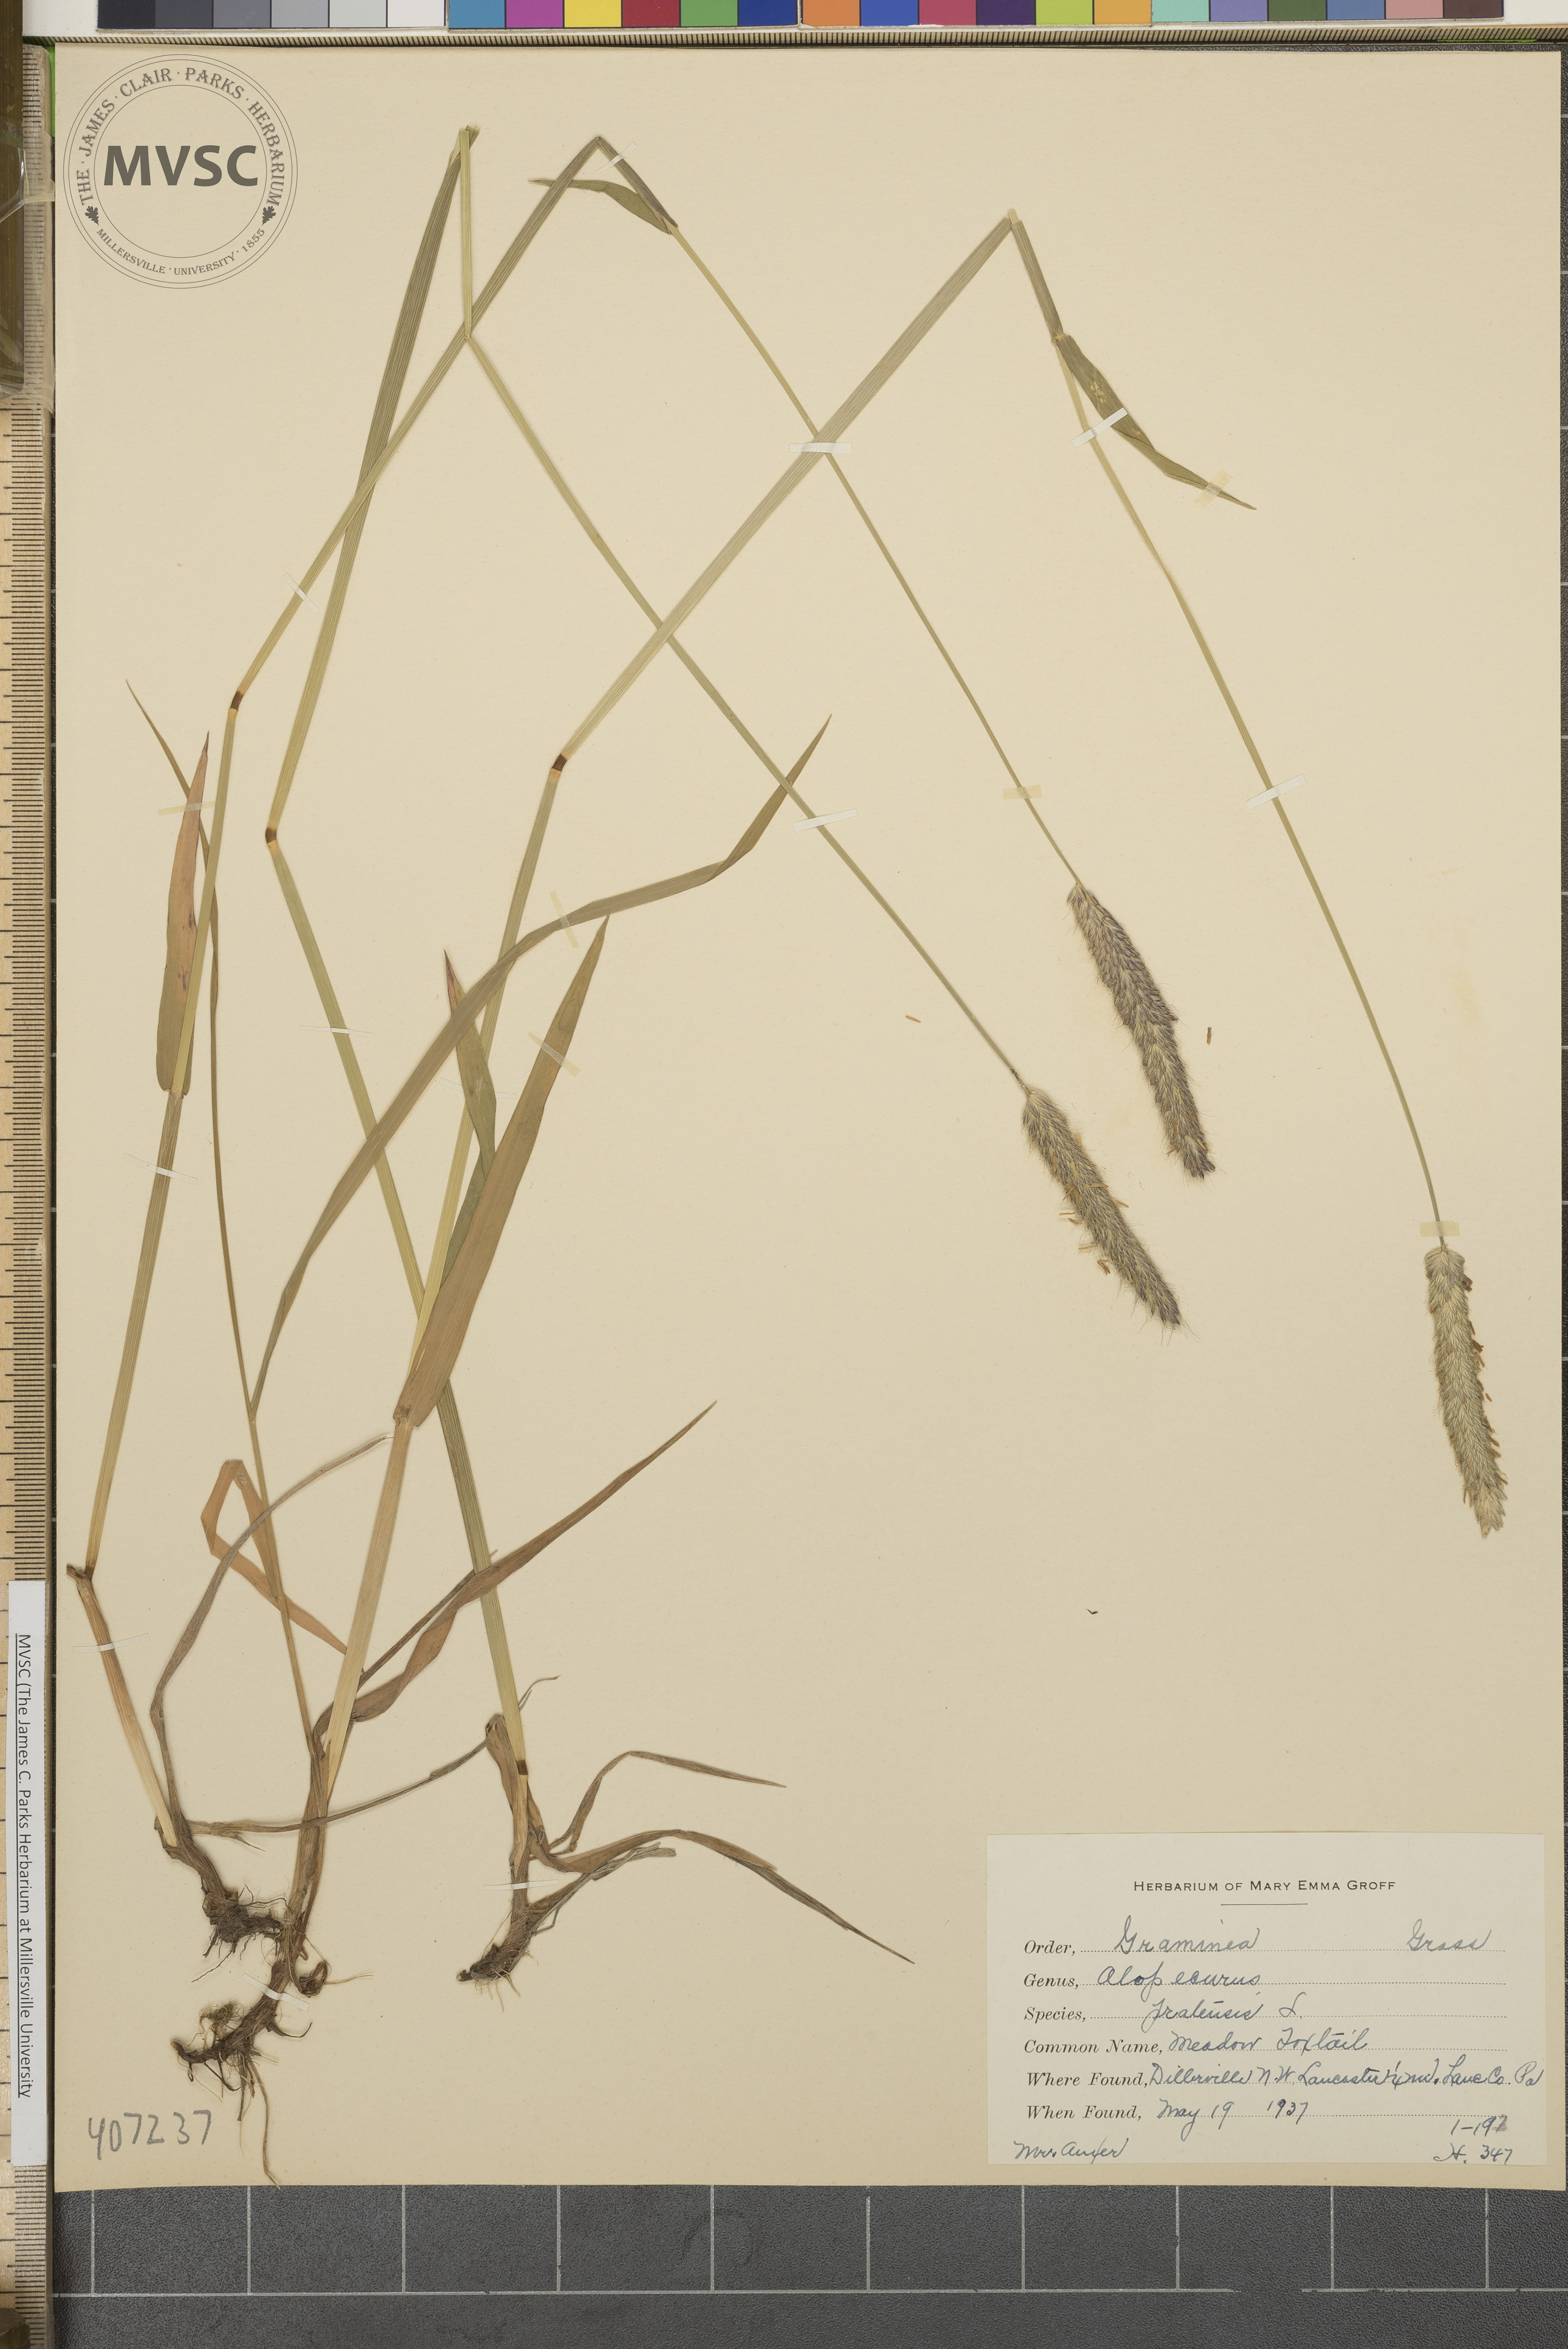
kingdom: Plantae
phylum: Tracheophyta
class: Liliopsida
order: Poales
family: Poaceae
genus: Alopecurus
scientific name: Alopecurus pratensis
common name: Meadow foxtail
